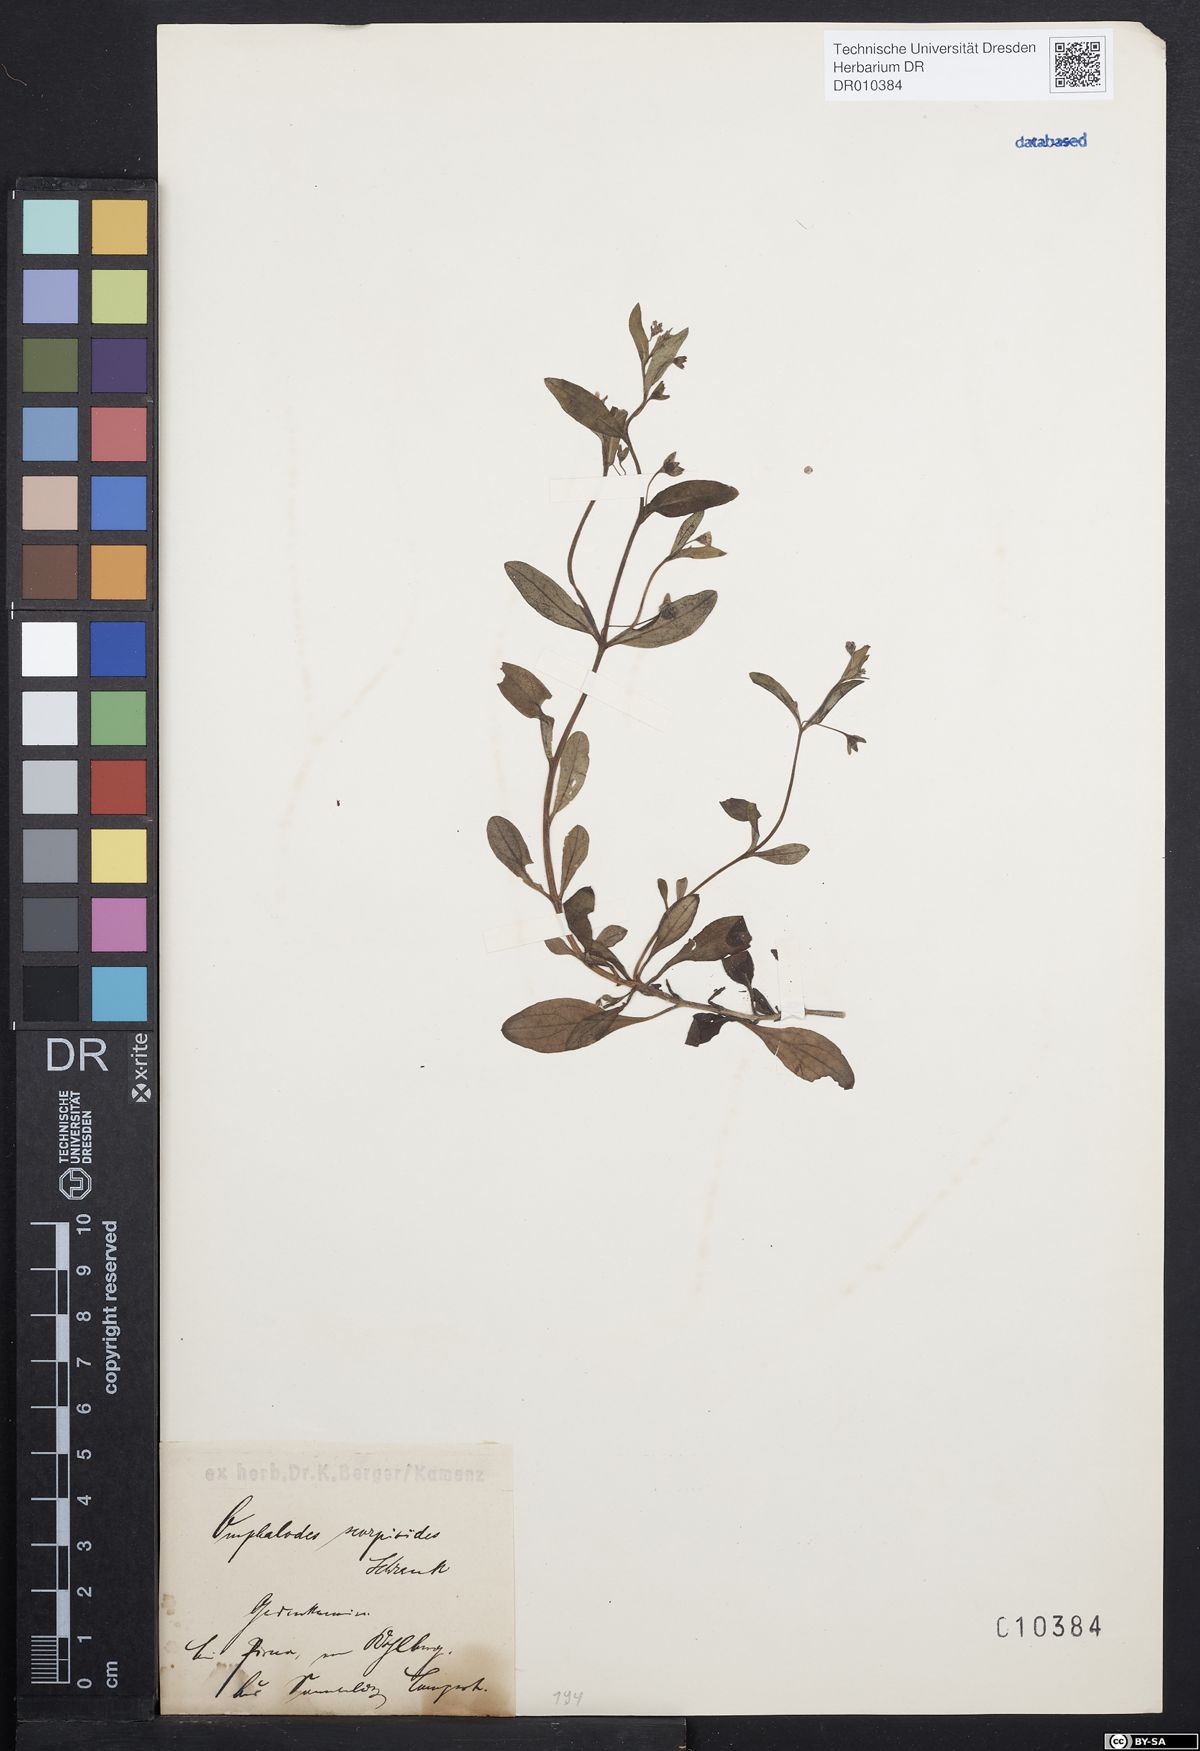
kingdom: Plantae
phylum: Tracheophyta
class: Magnoliopsida
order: Boraginales
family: Boraginaceae
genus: Memoremea
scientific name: Memoremea scorpioides
